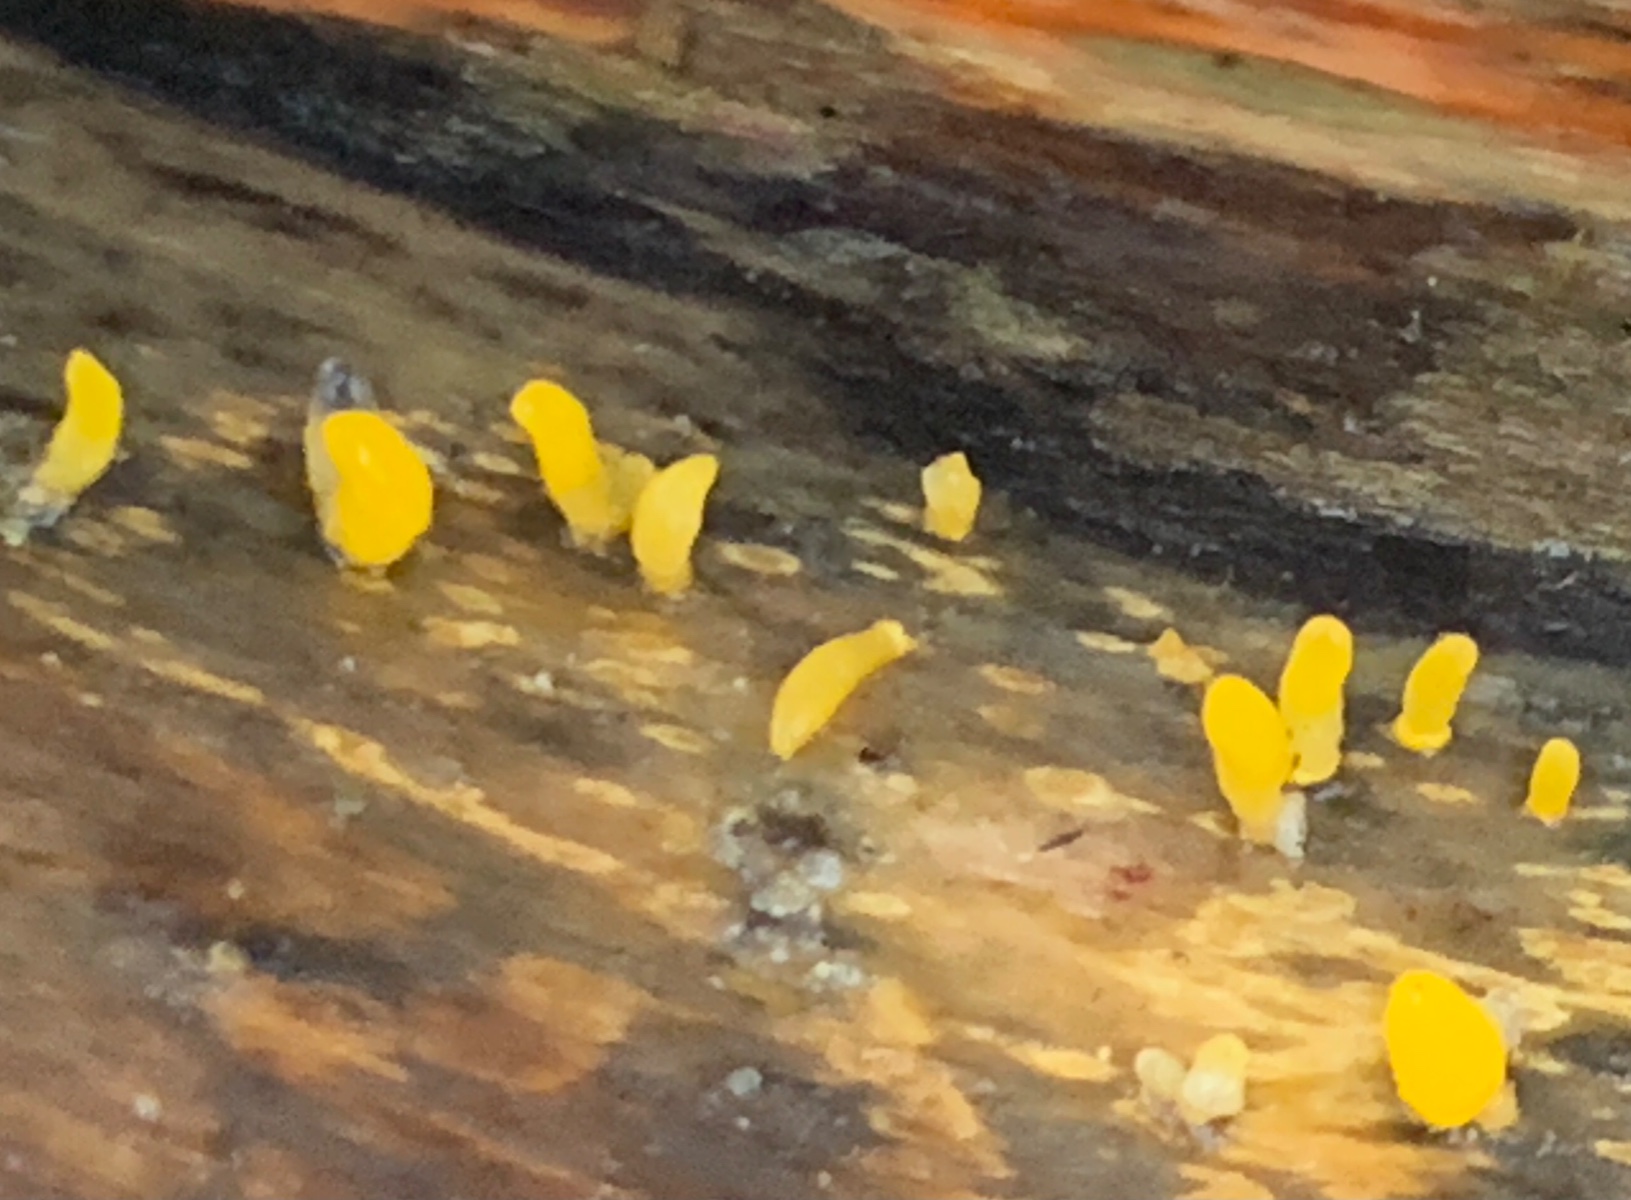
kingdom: Fungi
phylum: Basidiomycota
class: Dacrymycetes
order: Dacrymycetales
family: Dacrymycetaceae
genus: Calocera
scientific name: Calocera cornea
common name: liden guldgaffel
